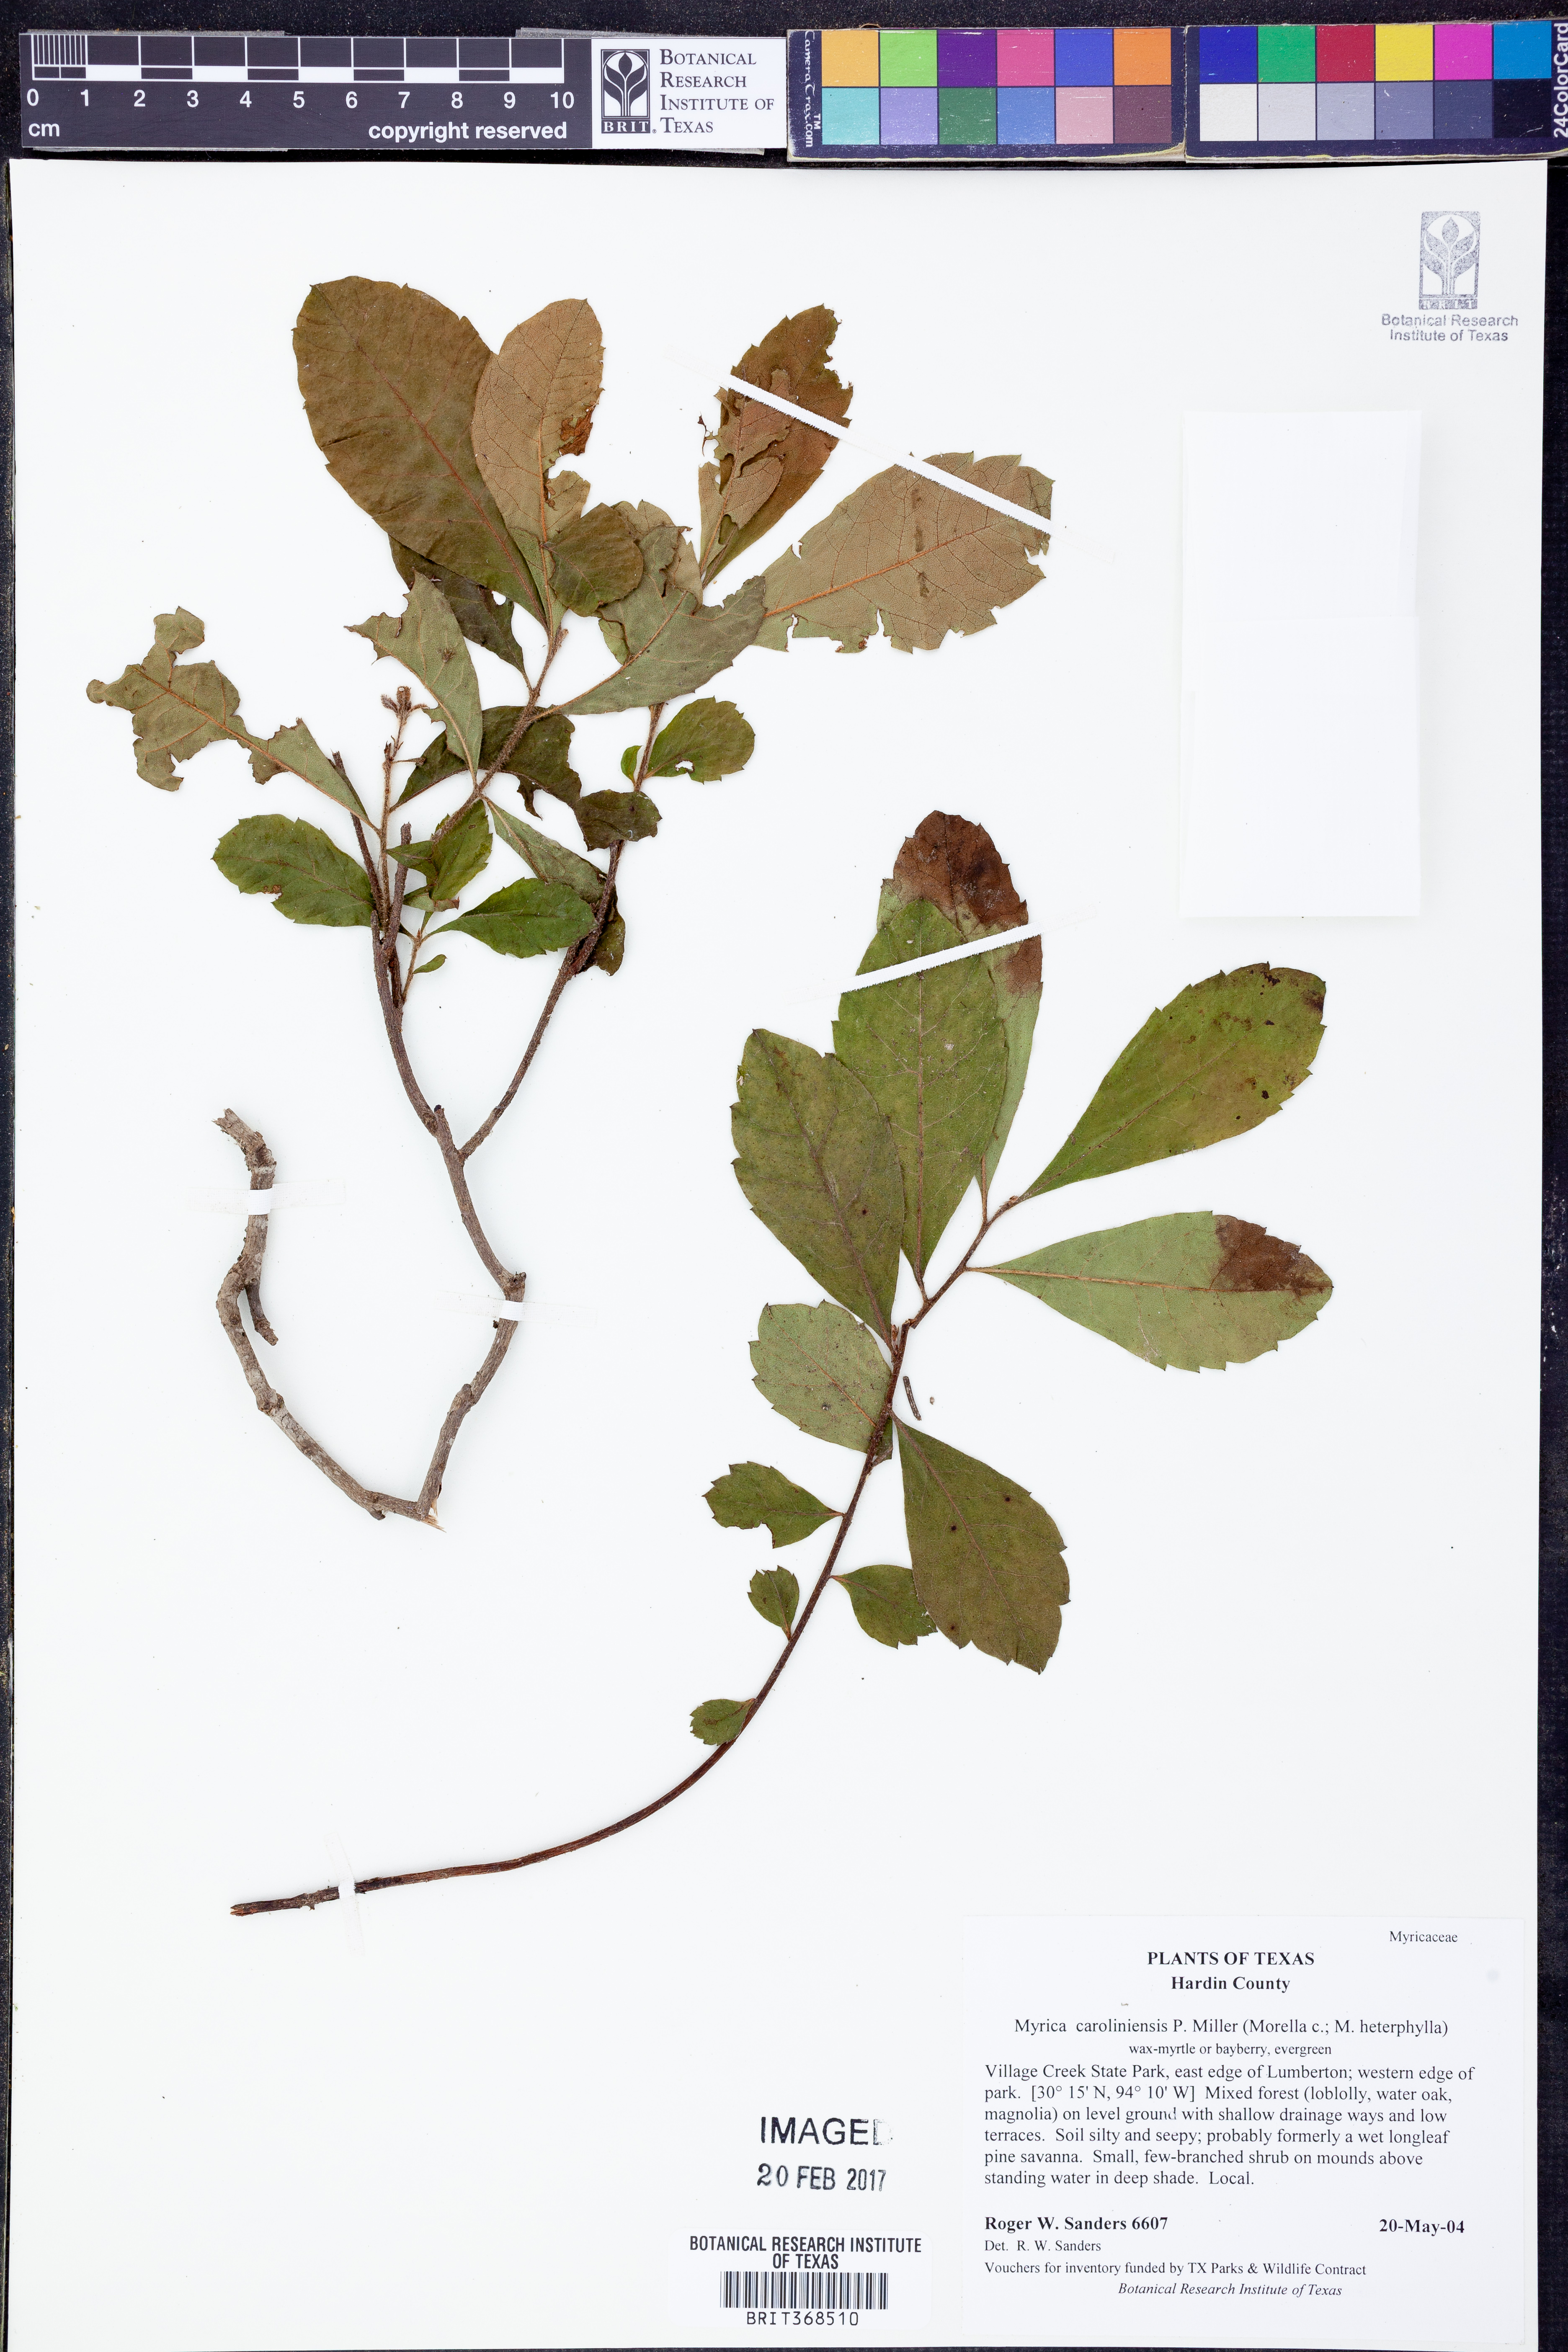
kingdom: Plantae
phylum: Tracheophyta
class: Magnoliopsida
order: Fagales
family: Myricaceae
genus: Morella
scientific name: Morella caroliniensis
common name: Evergreen bayberry
